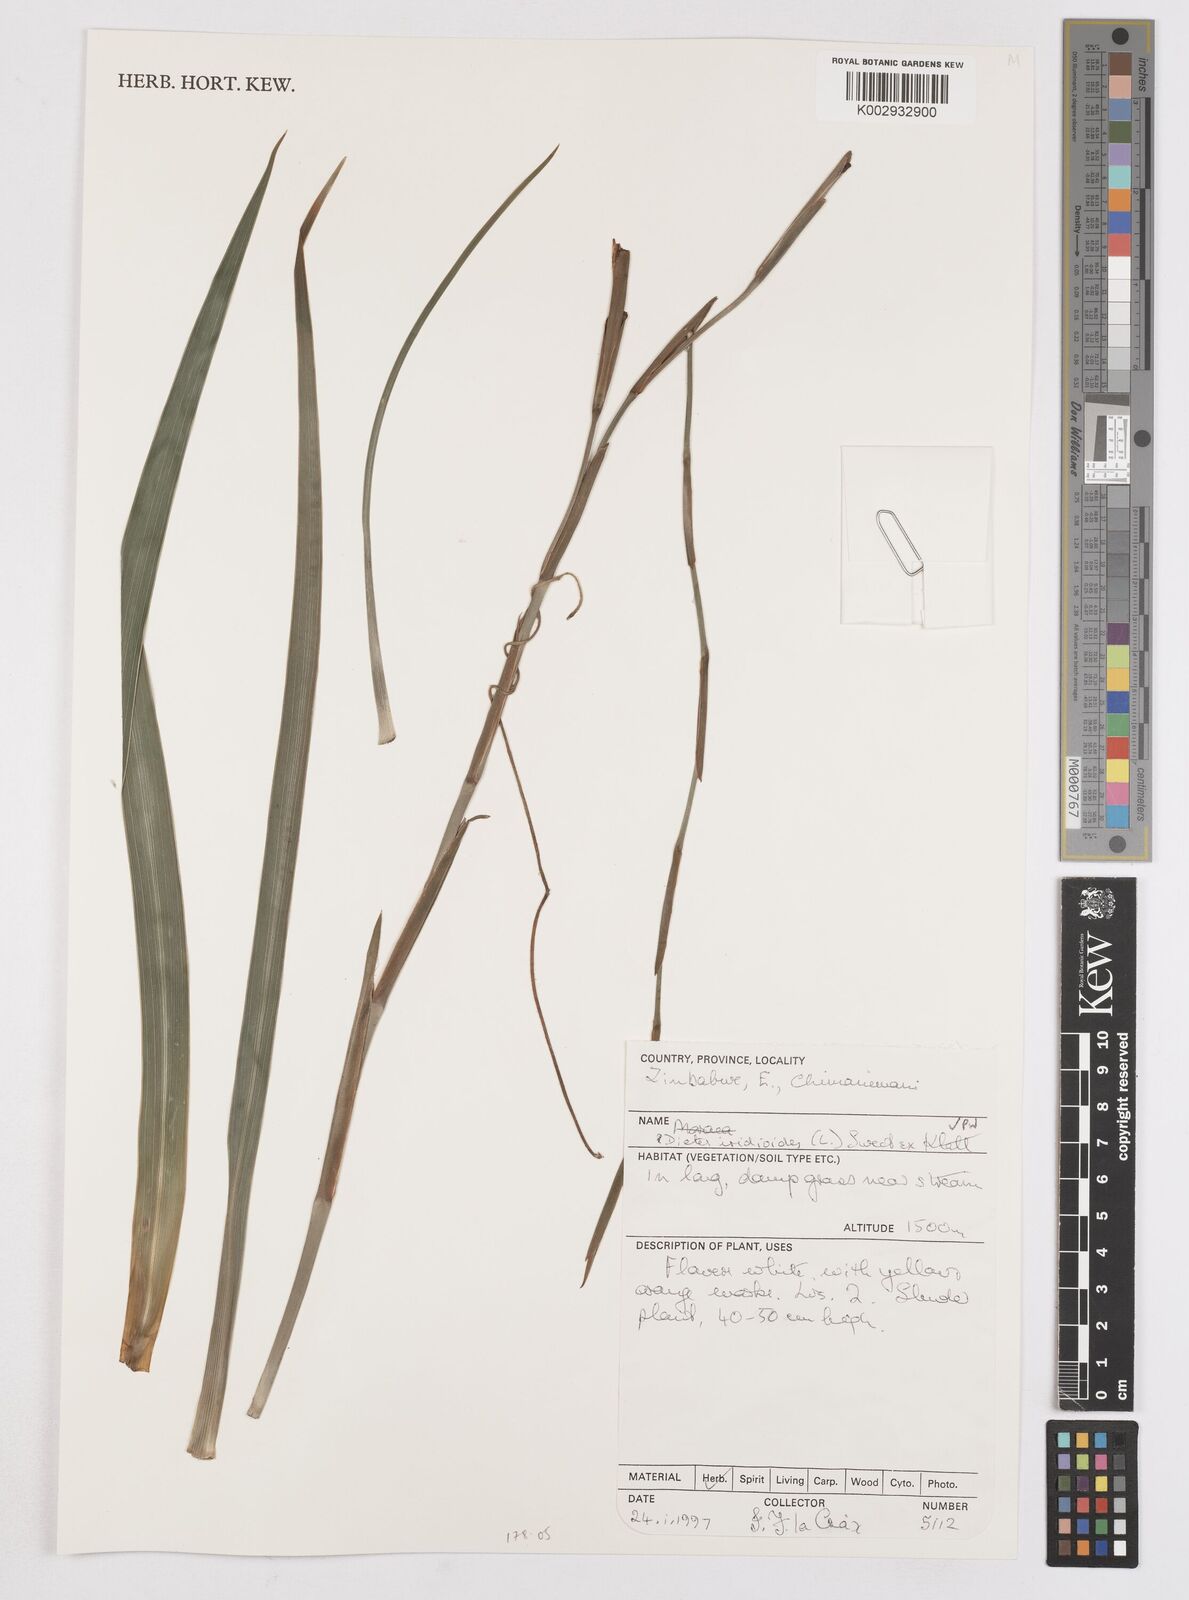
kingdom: Plantae
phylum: Tracheophyta
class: Liliopsida
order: Asparagales
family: Iridaceae
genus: Dietes
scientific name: Dietes iridioides
